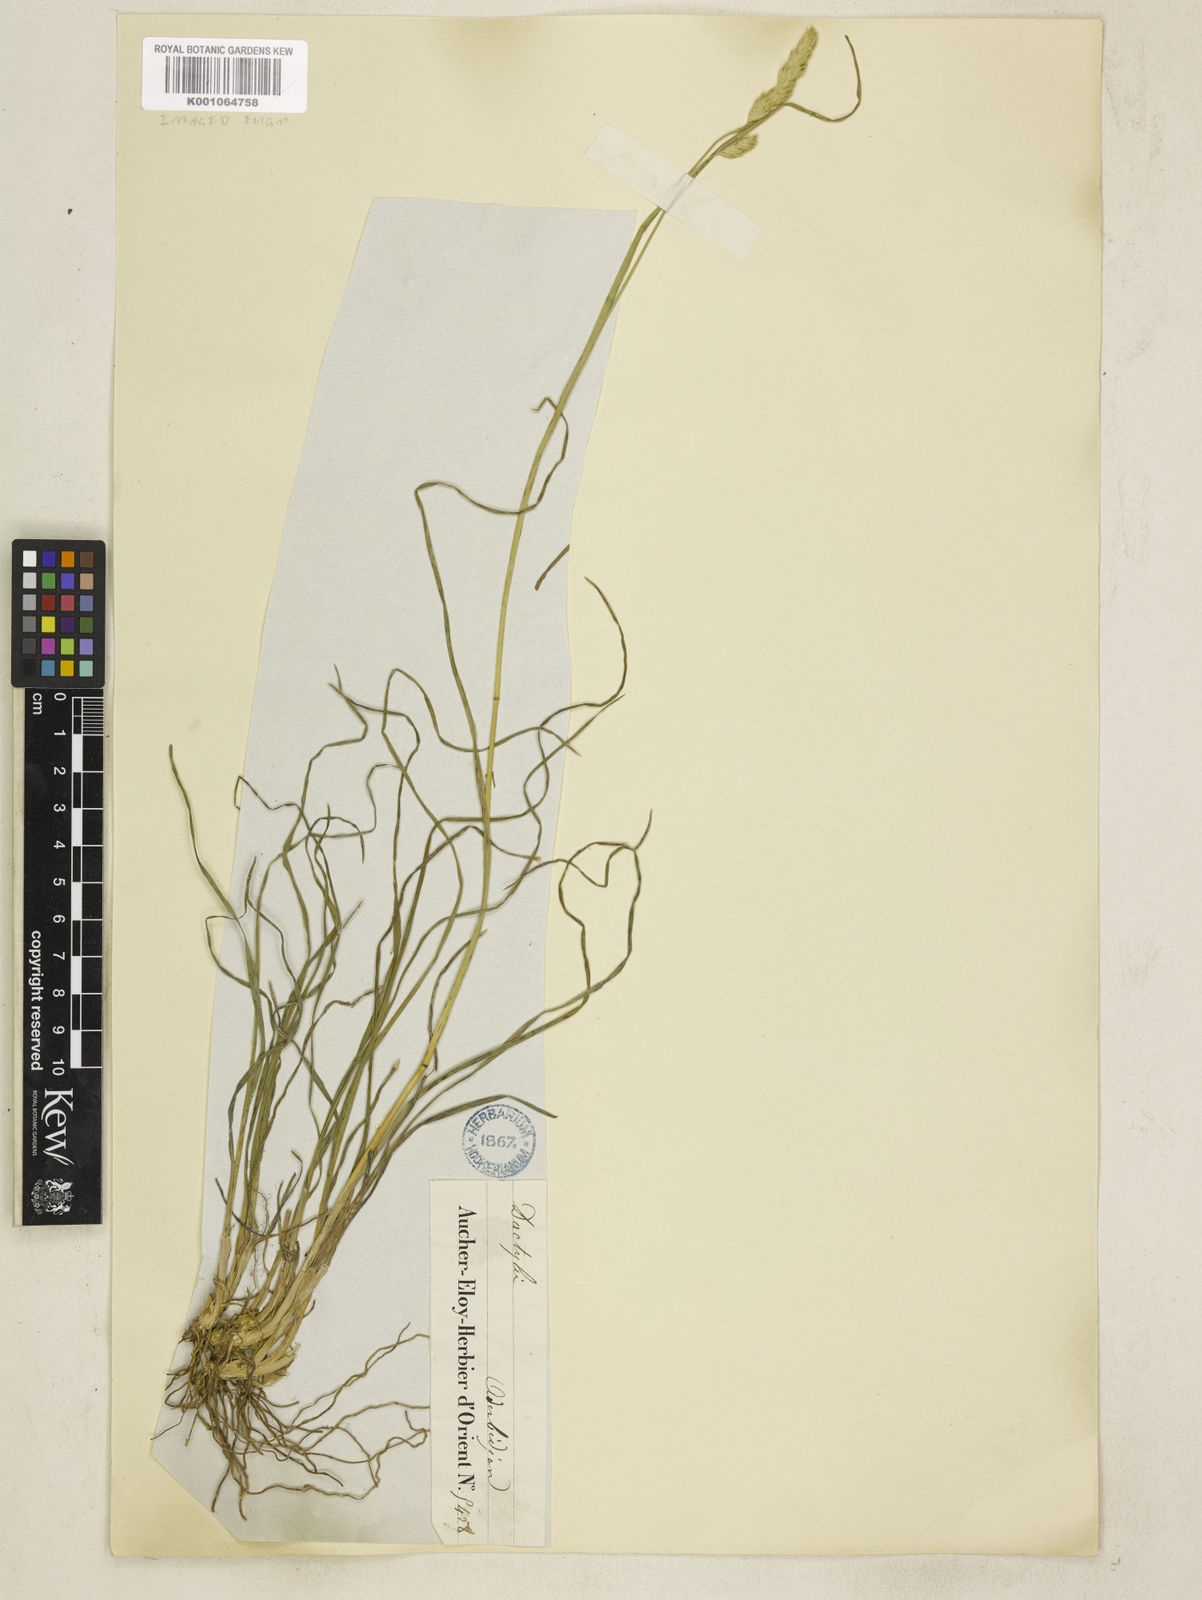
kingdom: Plantae
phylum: Tracheophyta
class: Liliopsida
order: Poales
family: Poaceae
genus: Dactylis
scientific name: Dactylis glomerata
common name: Orchardgrass
